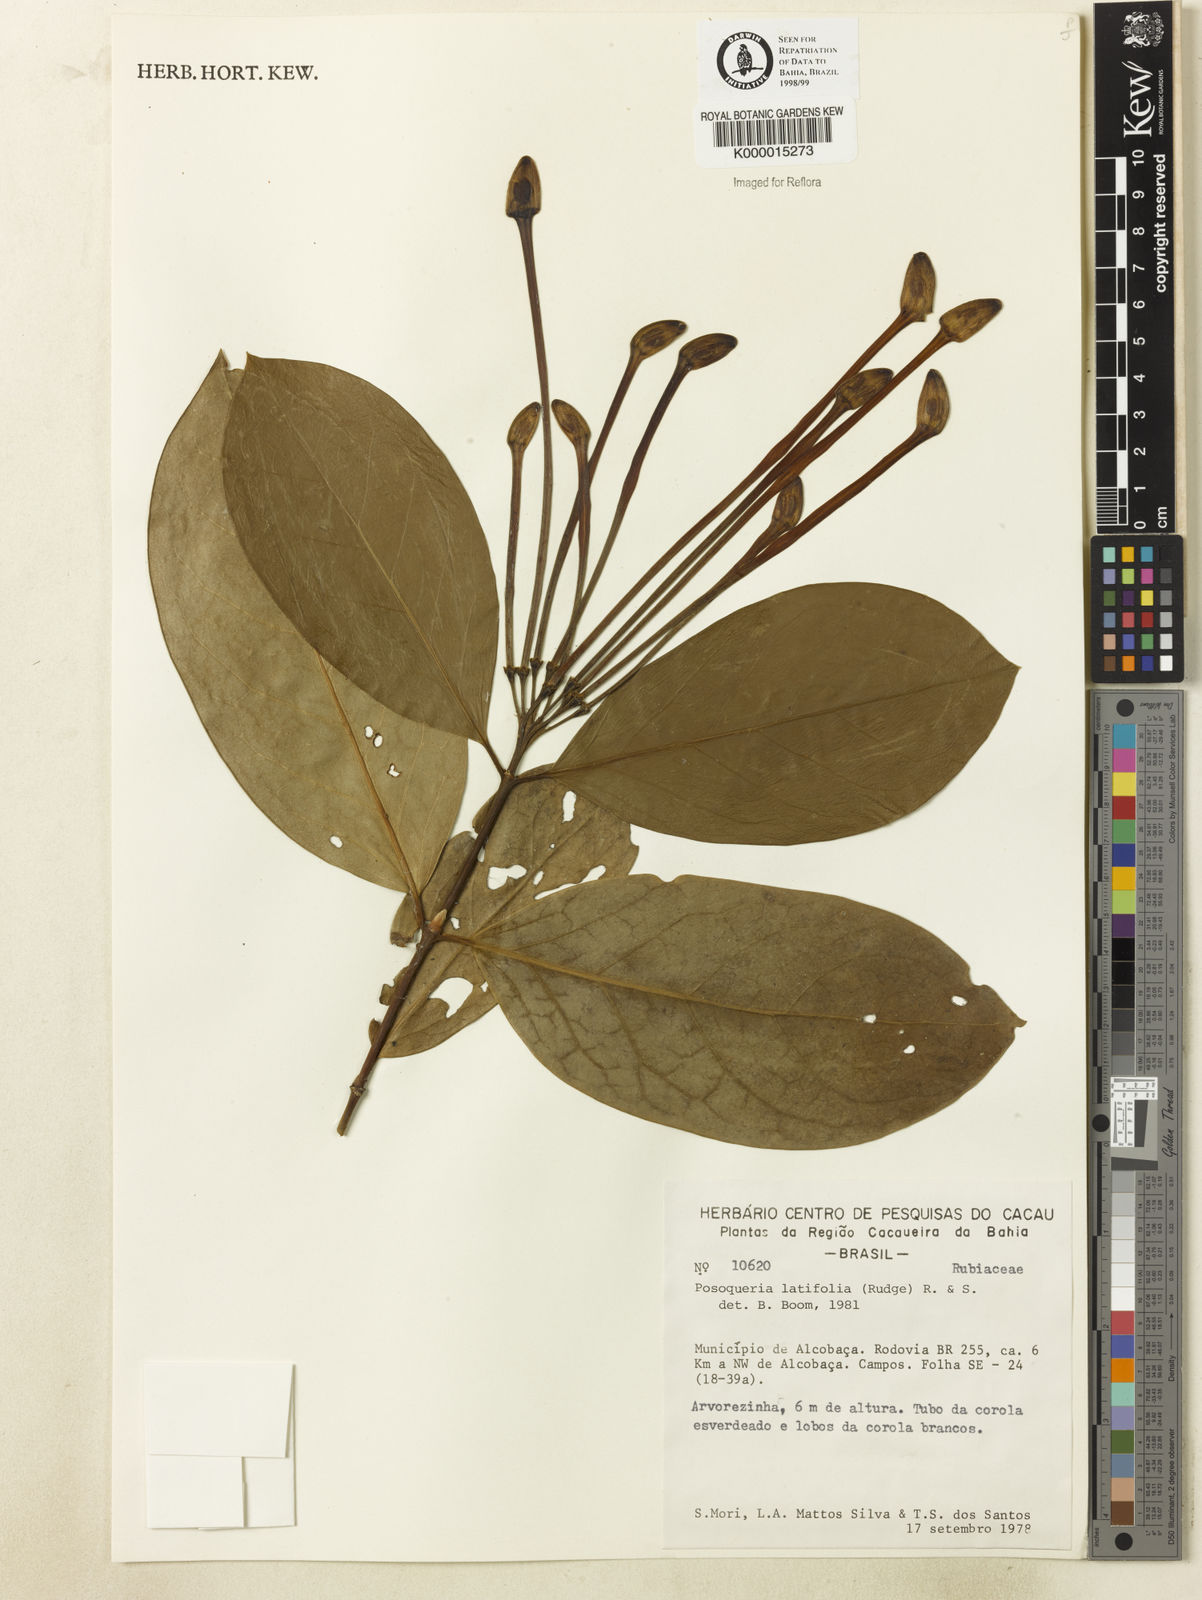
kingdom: Plantae
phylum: Tracheophyta
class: Magnoliopsida
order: Gentianales
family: Rubiaceae
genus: Posoqueria
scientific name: Posoqueria
